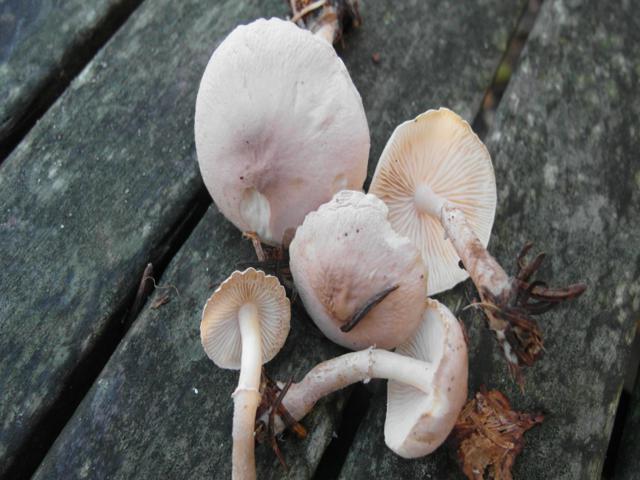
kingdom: Fungi
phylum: Basidiomycota
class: Agaricomycetes
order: Agaricales
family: Tricholomataceae
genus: Cystoderma
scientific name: Cystoderma carcharias
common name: rødgrå grynhat
